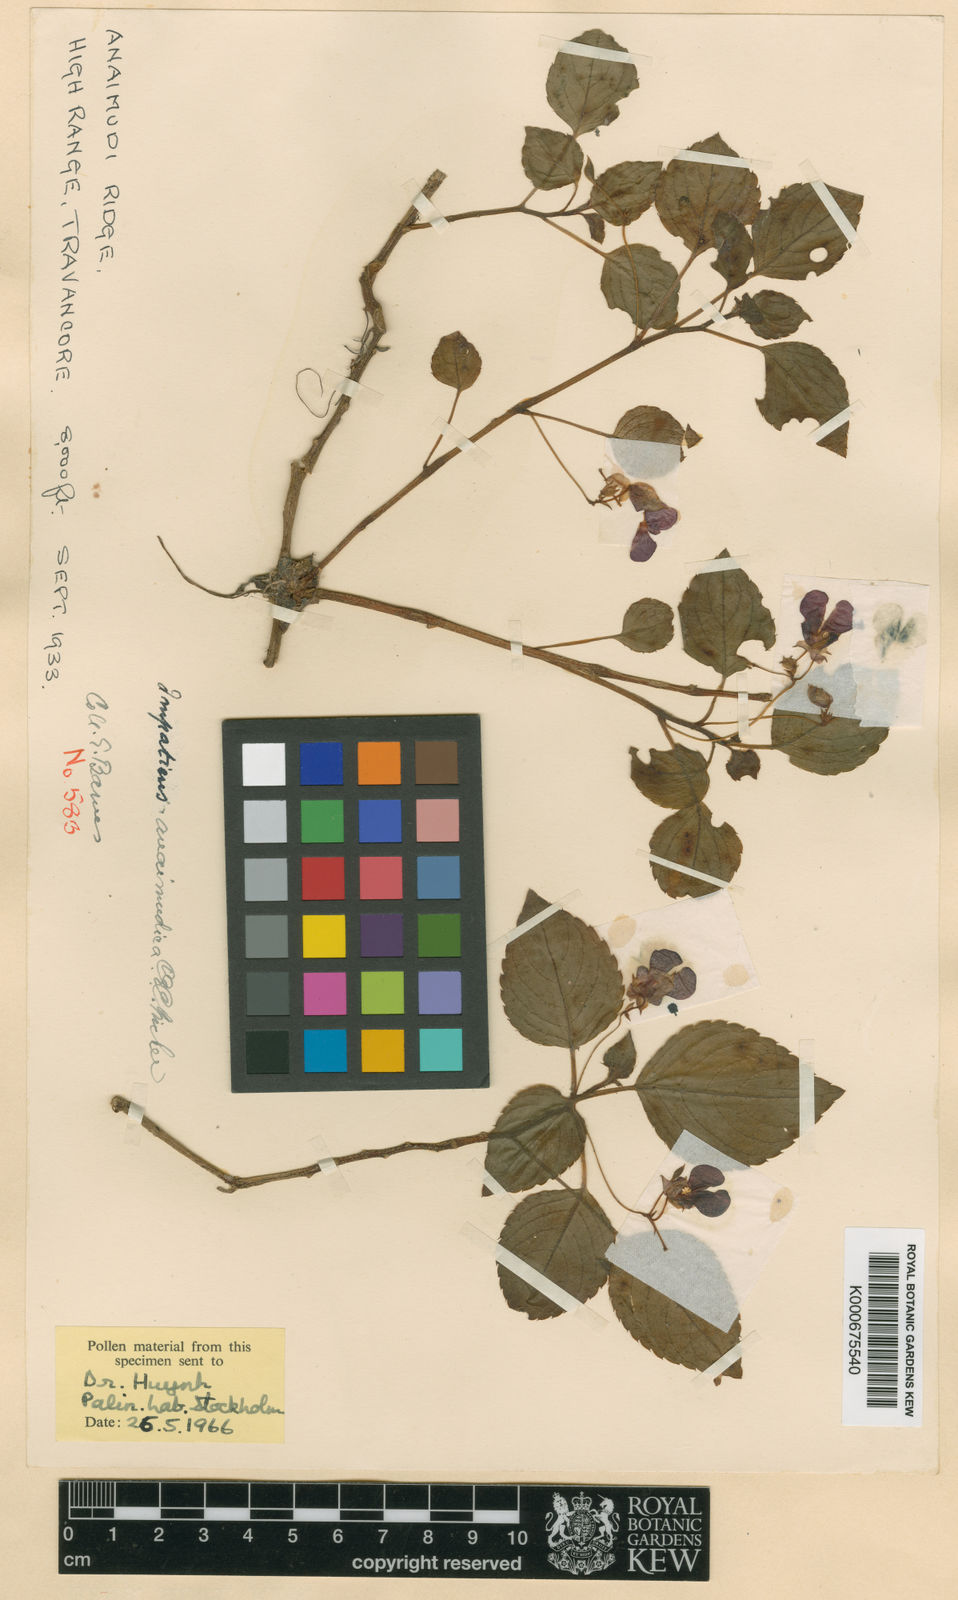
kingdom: Plantae
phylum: Tracheophyta
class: Magnoliopsida
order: Ericales
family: Balsaminaceae
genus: Impatiens
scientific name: Impatiens anaimudica
